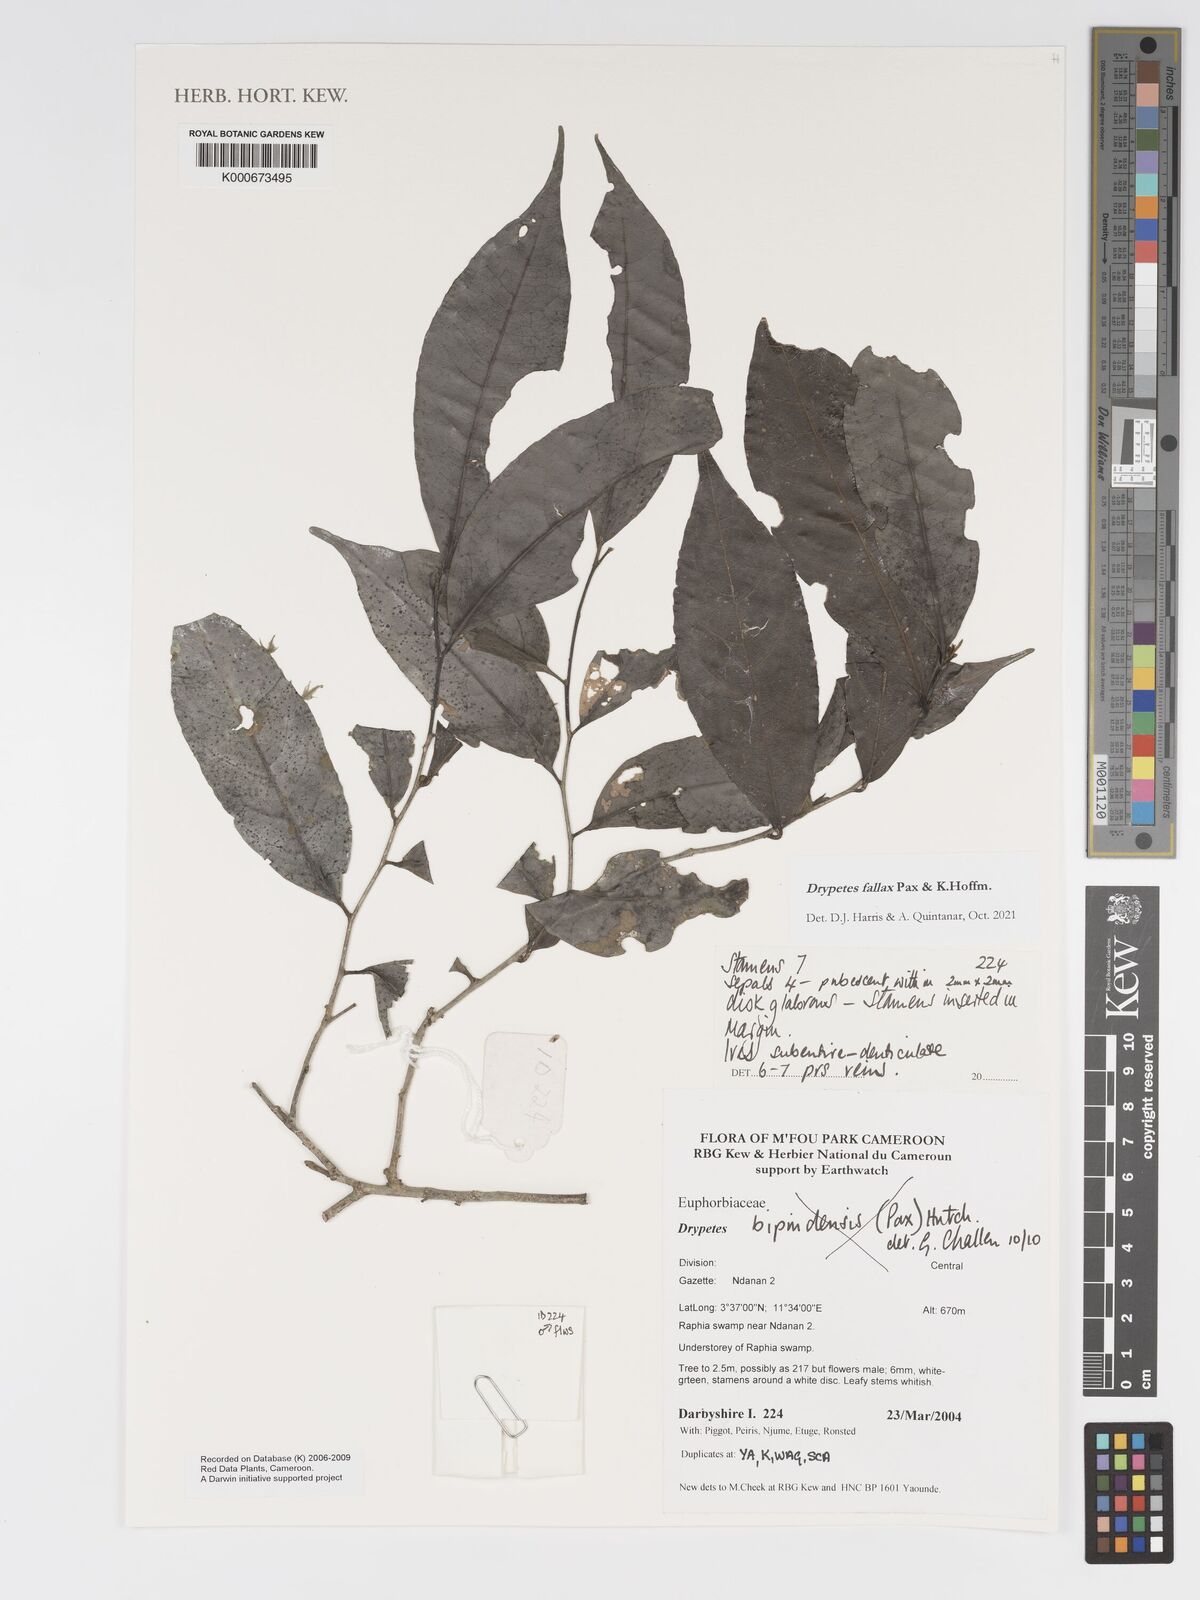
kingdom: Plantae
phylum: Tracheophyta
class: Magnoliopsida
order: Malpighiales
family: Putranjivaceae
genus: Drypetes
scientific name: Drypetes bipindensis
